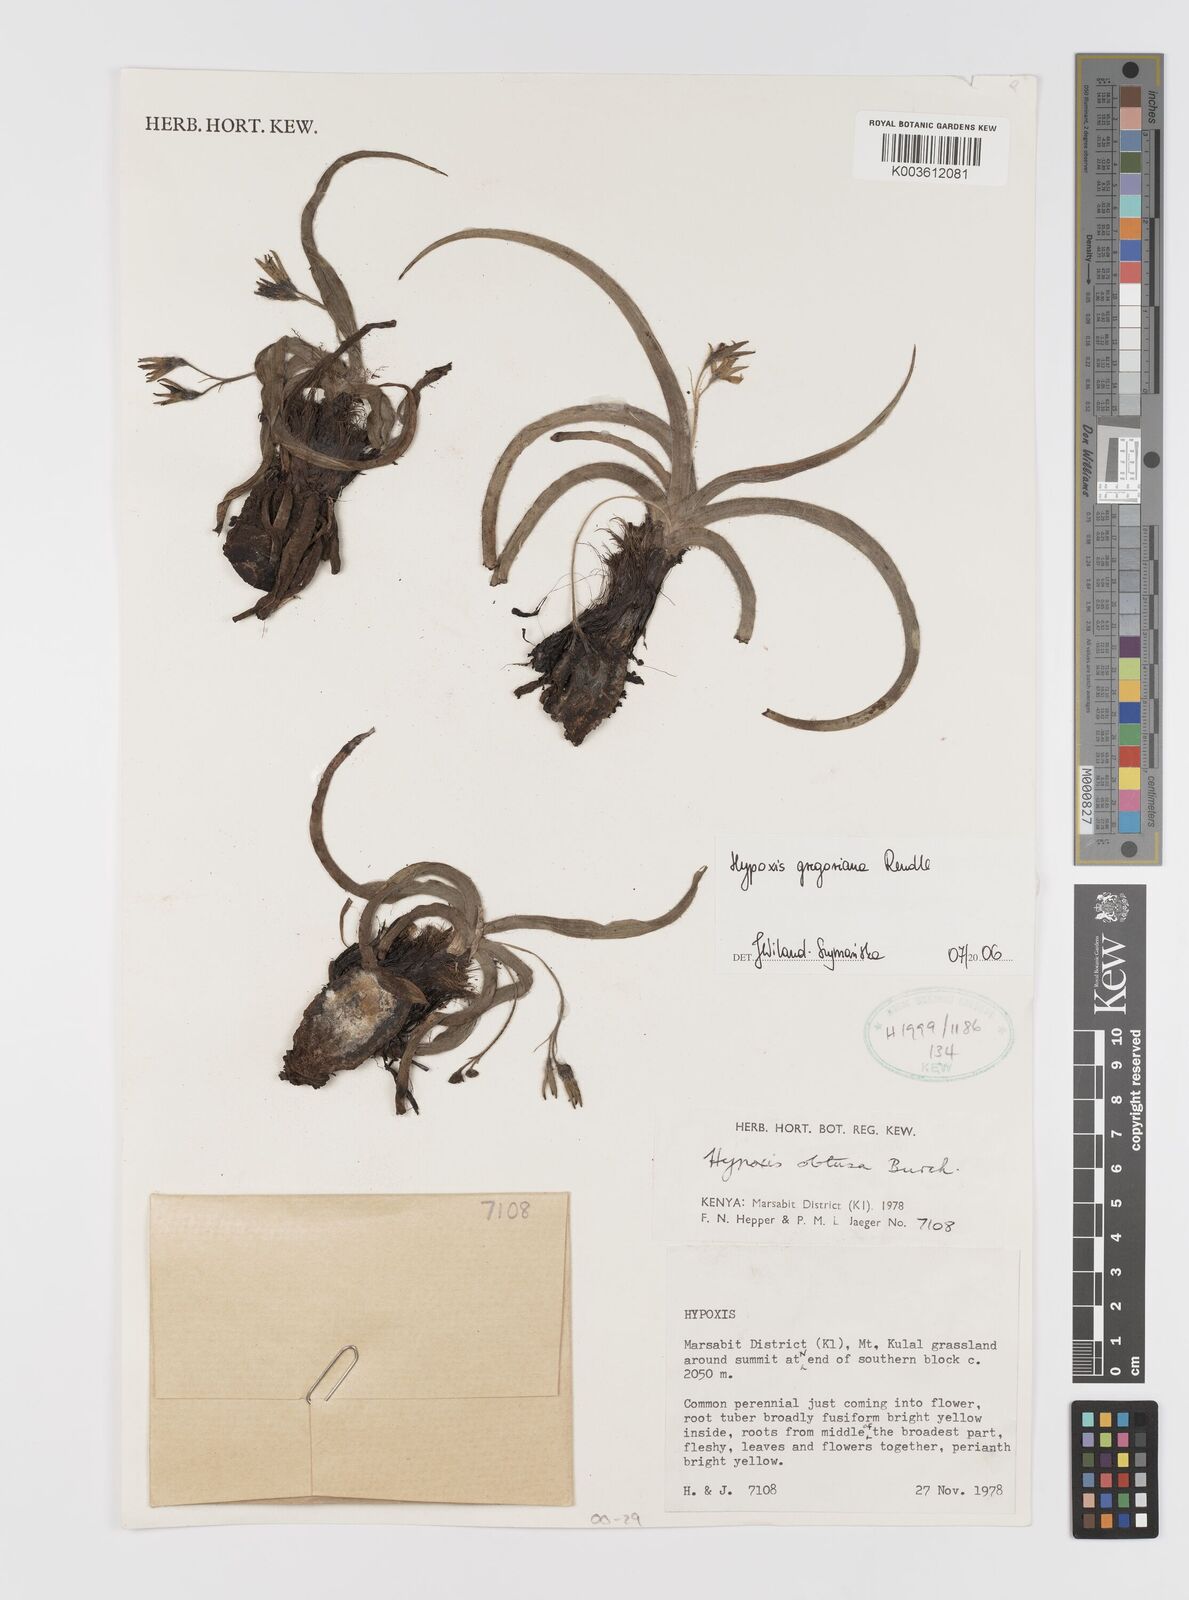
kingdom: Plantae
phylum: Tracheophyta
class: Liliopsida
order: Asparagales
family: Hypoxidaceae
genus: Hypoxis
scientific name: Hypoxis gregoriana
